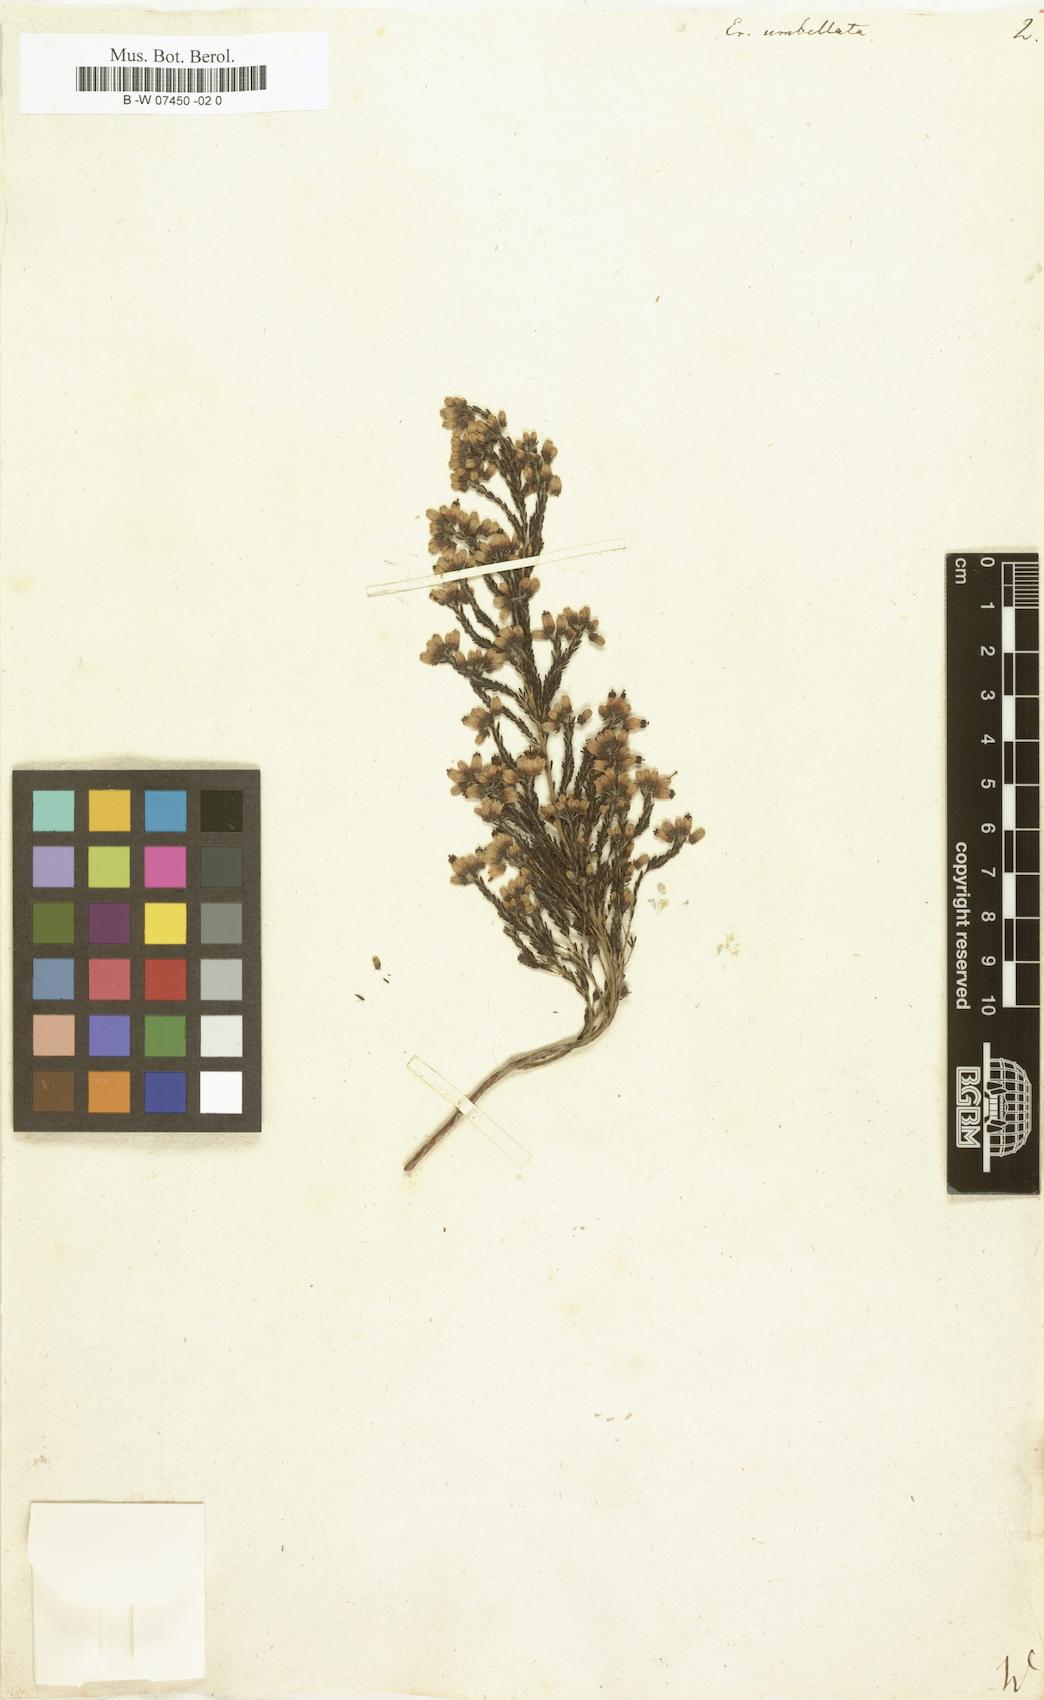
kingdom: Plantae
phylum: Tracheophyta
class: Magnoliopsida
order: Ericales
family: Ericaceae
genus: Erica
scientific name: Erica umbellata
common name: Dwarf spanish heath
